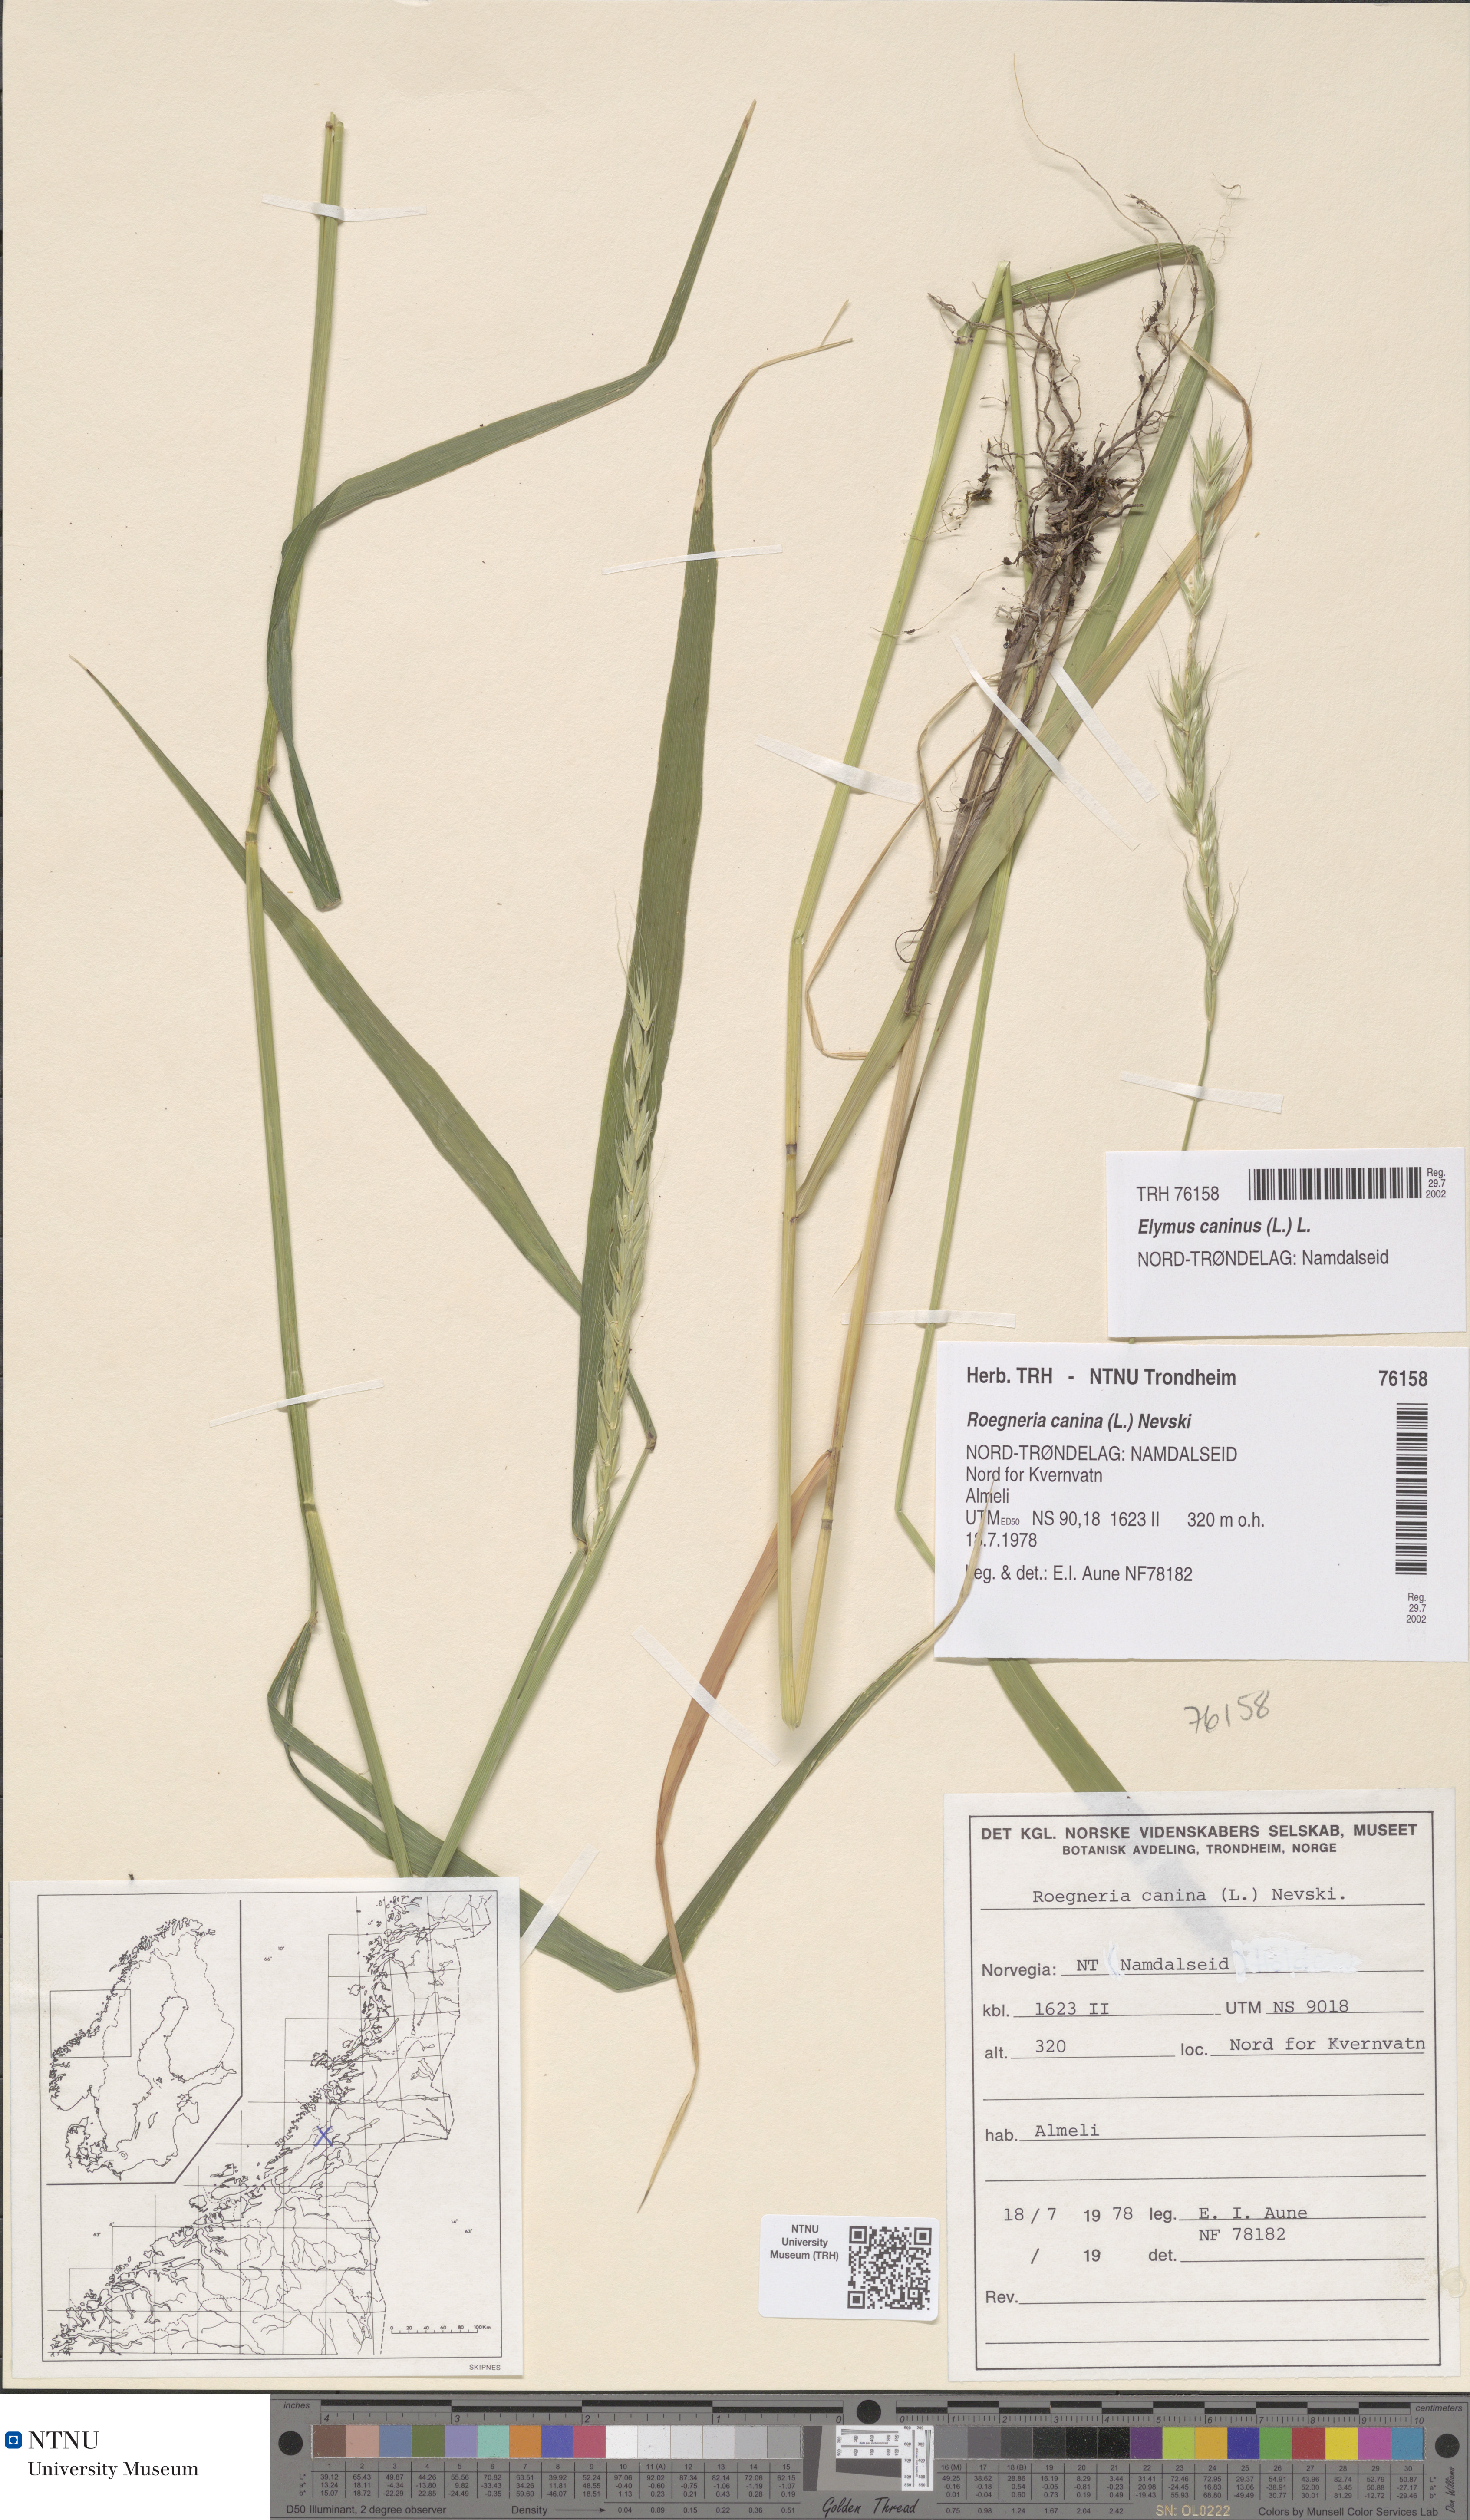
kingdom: Plantae
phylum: Tracheophyta
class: Liliopsida
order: Poales
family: Poaceae
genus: Elymus
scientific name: Elymus caninus
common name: Bearded couch
